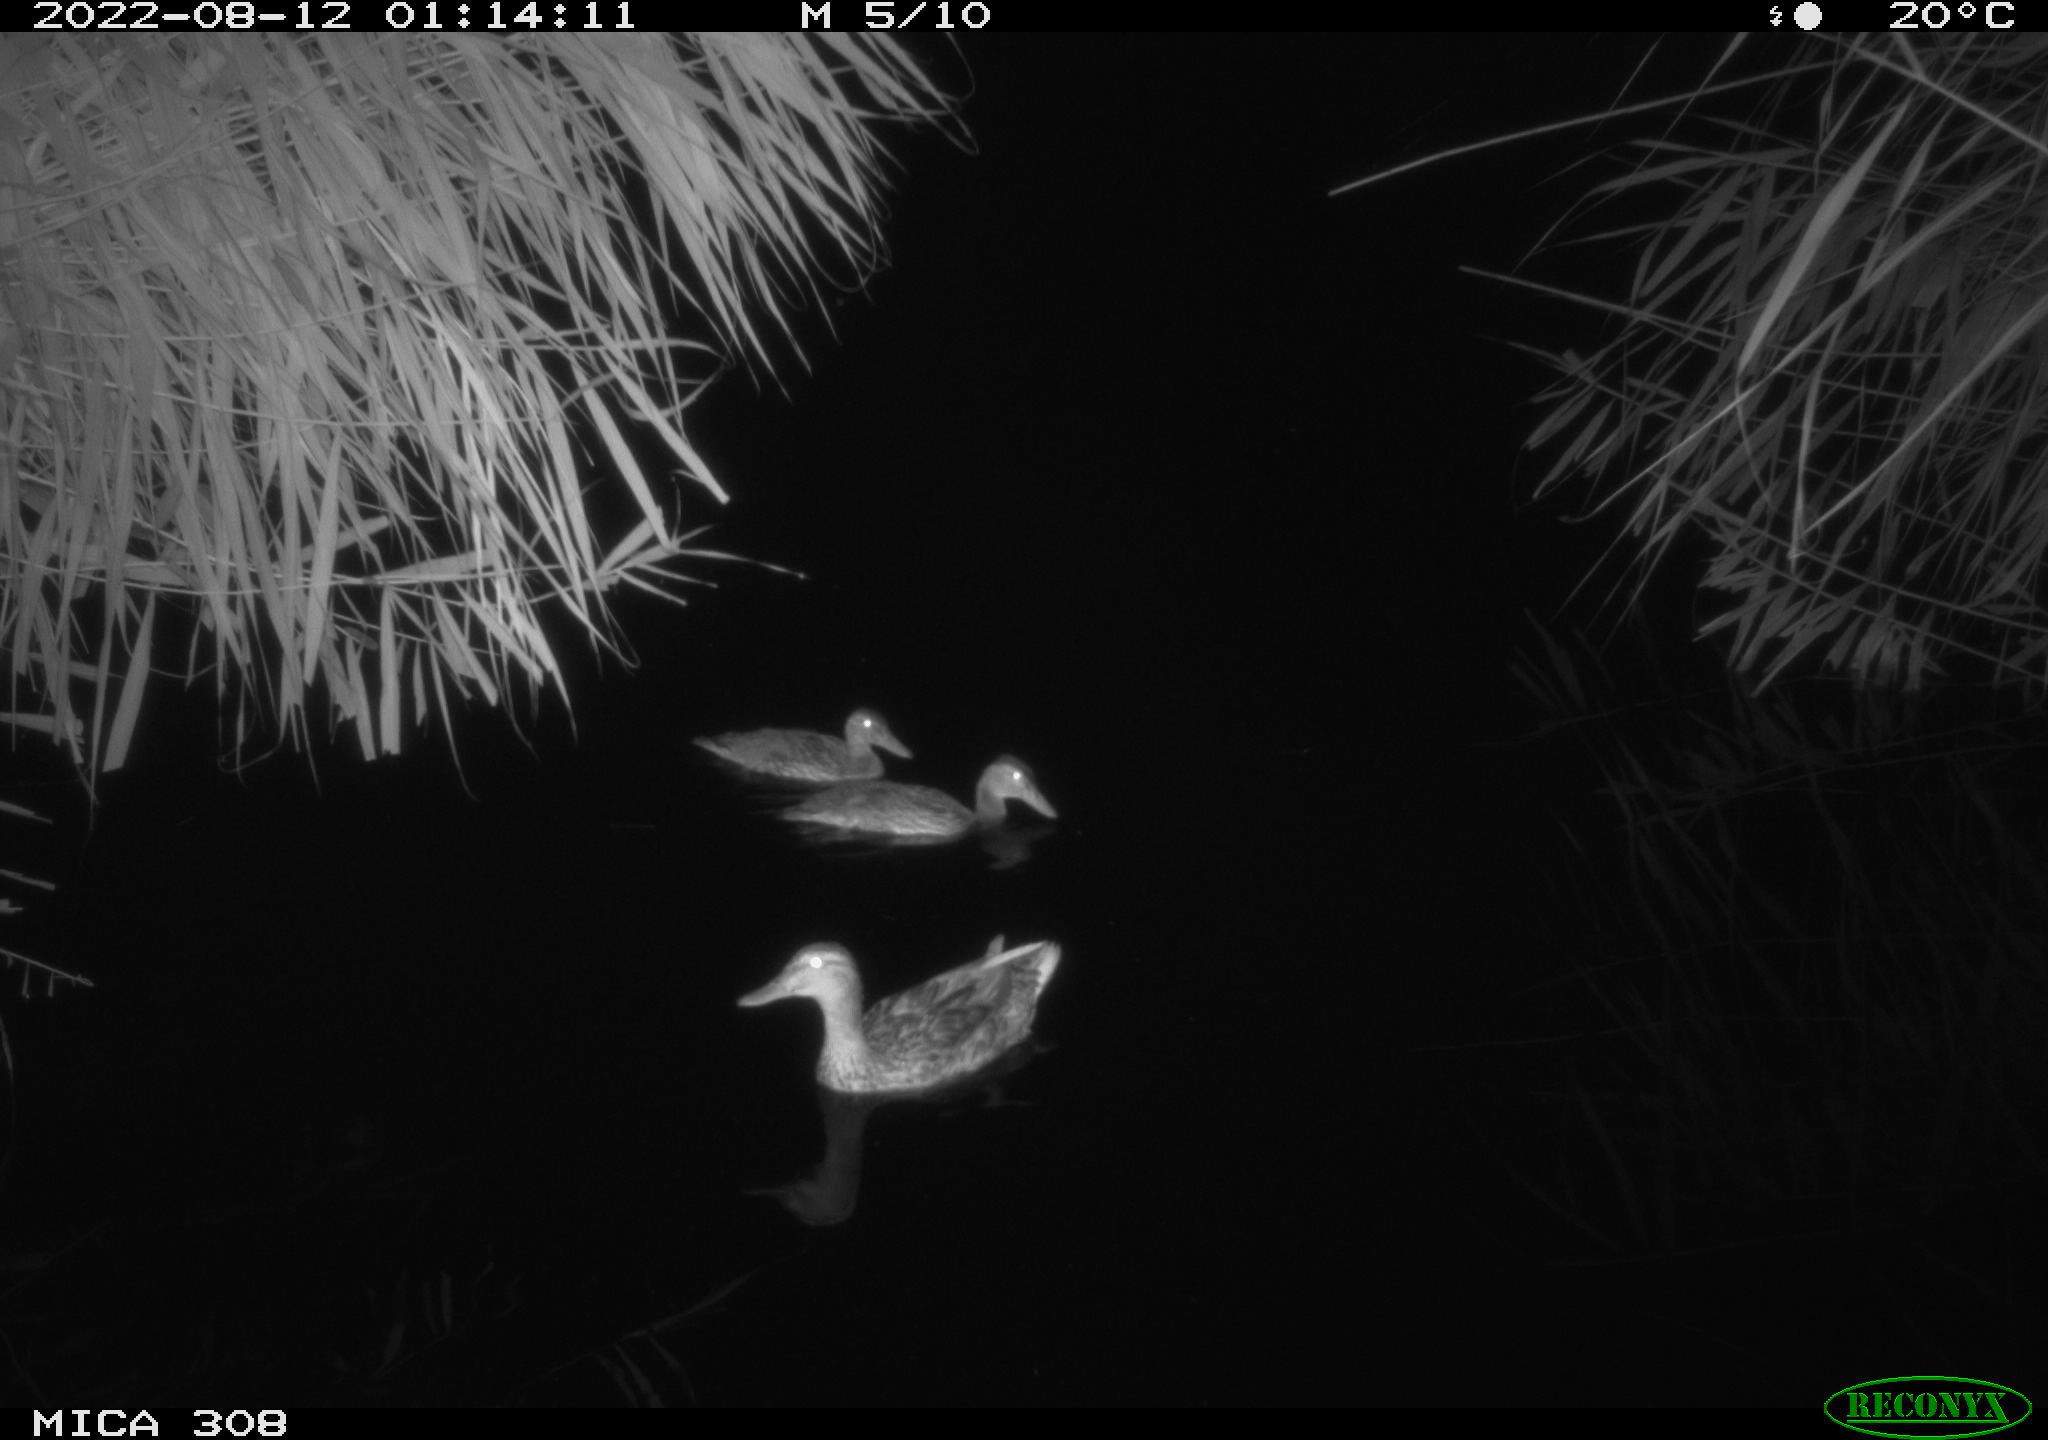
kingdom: Animalia
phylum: Chordata
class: Aves
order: Anseriformes
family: Anatidae
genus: Anas
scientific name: Anas platyrhynchos
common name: Mallard
